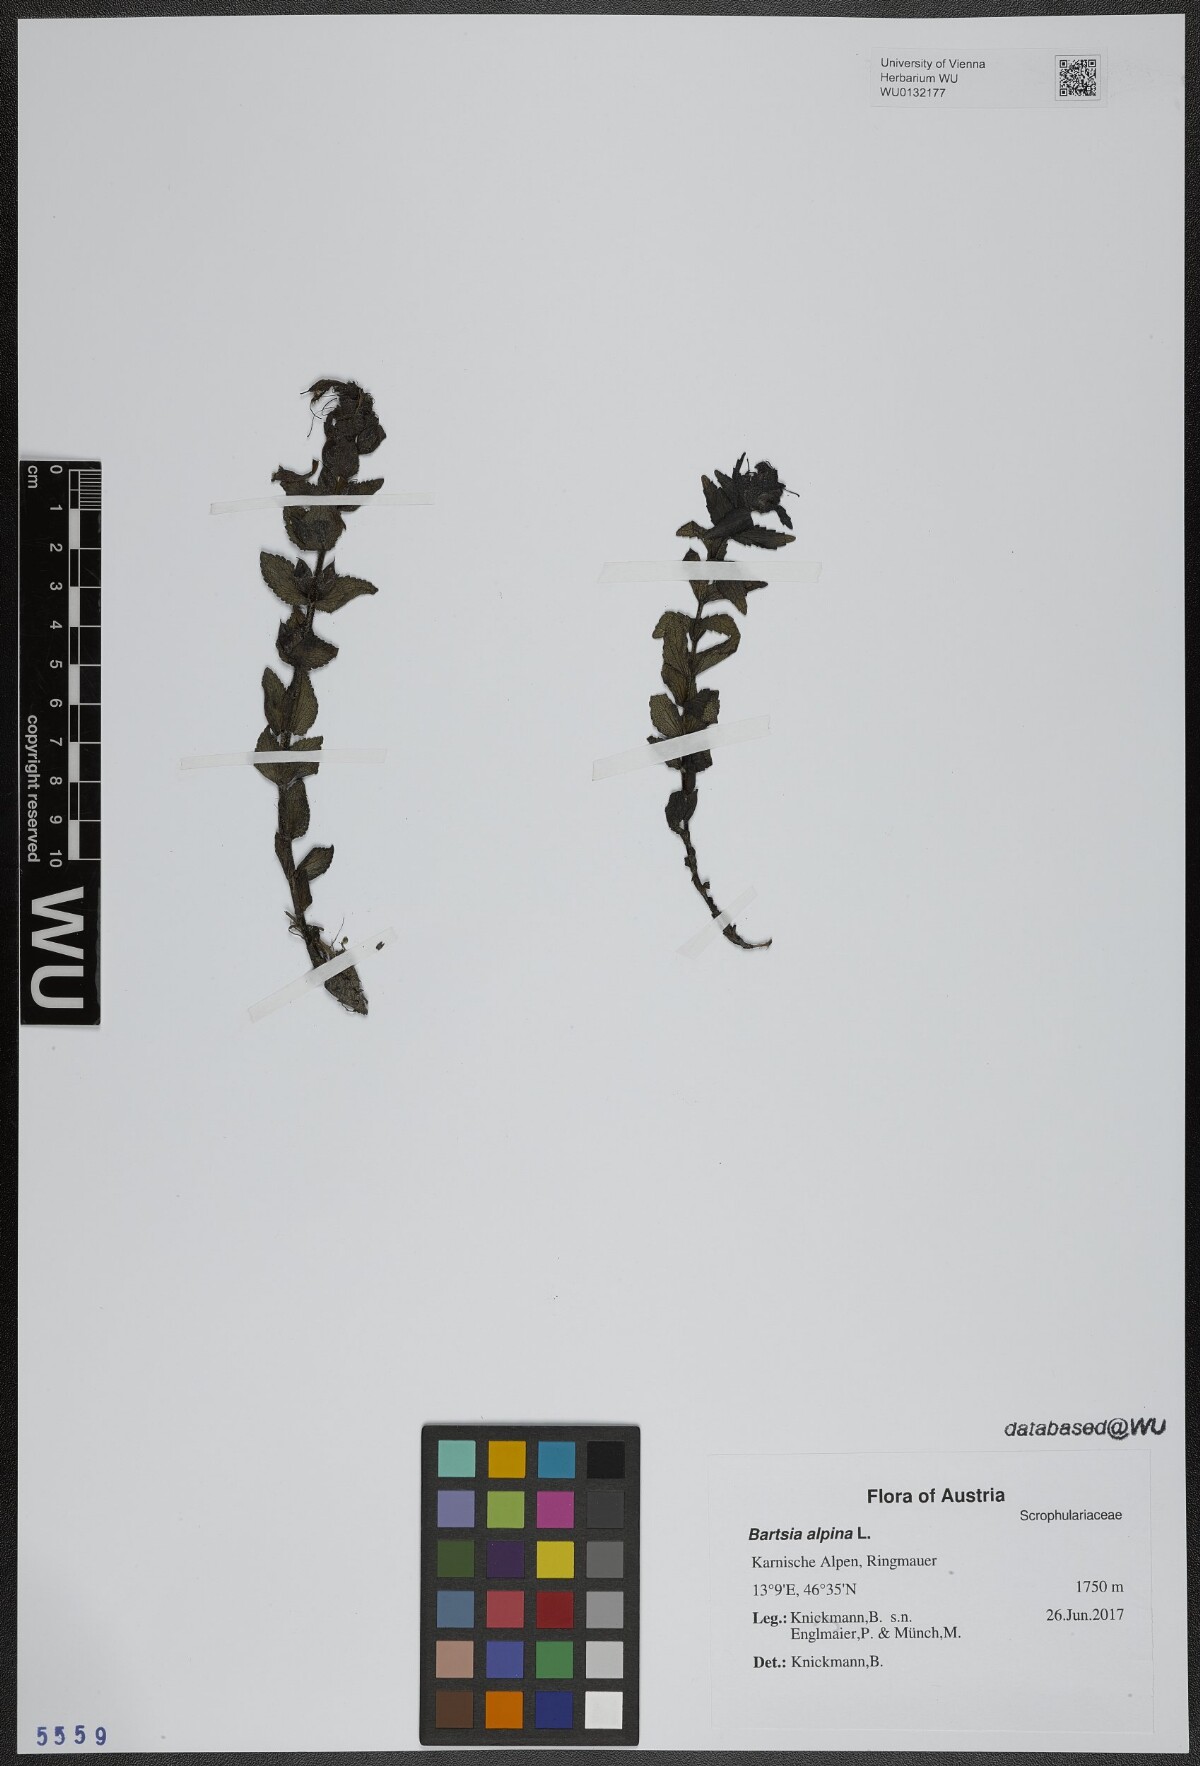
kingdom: Plantae
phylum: Tracheophyta
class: Magnoliopsida
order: Lamiales
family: Orobanchaceae
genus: Bartsia
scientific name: Bartsia alpina
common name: Alpine bartsia
